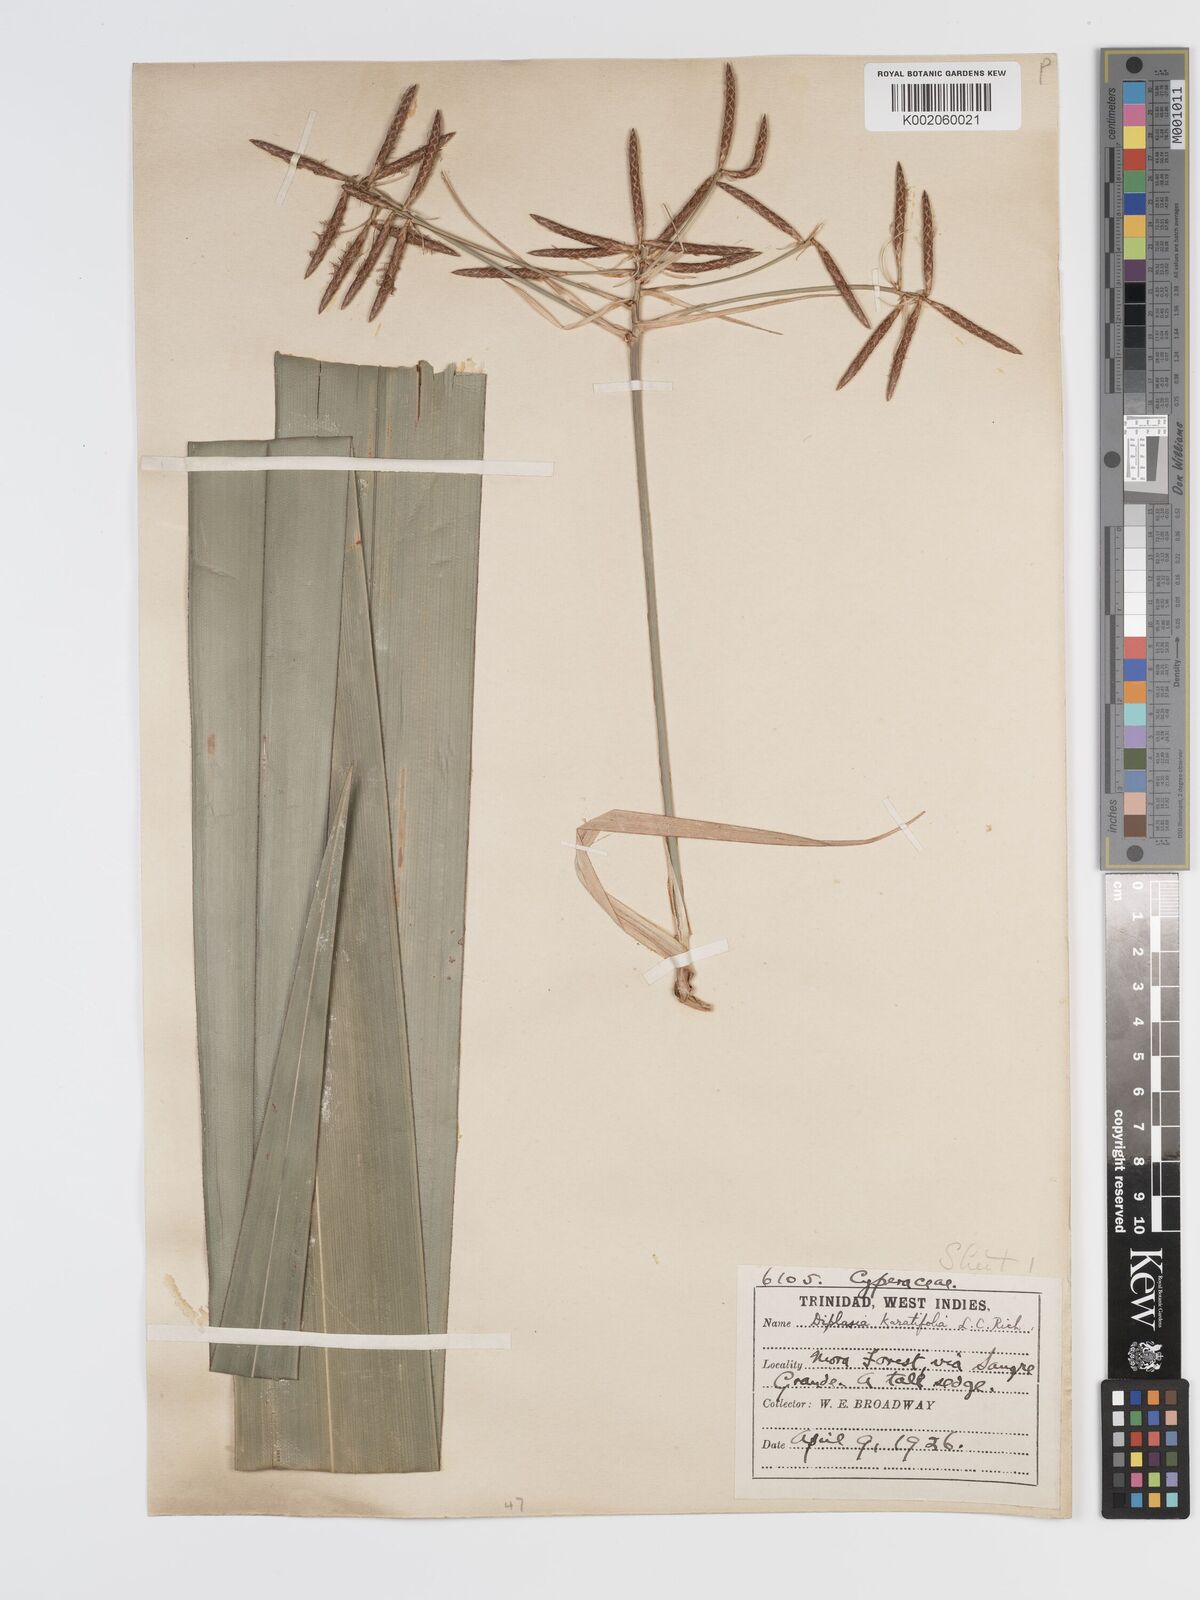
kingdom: Plantae
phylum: Tracheophyta
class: Liliopsida
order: Poales
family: Cyperaceae
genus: Diplasia
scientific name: Diplasia karatifolia
